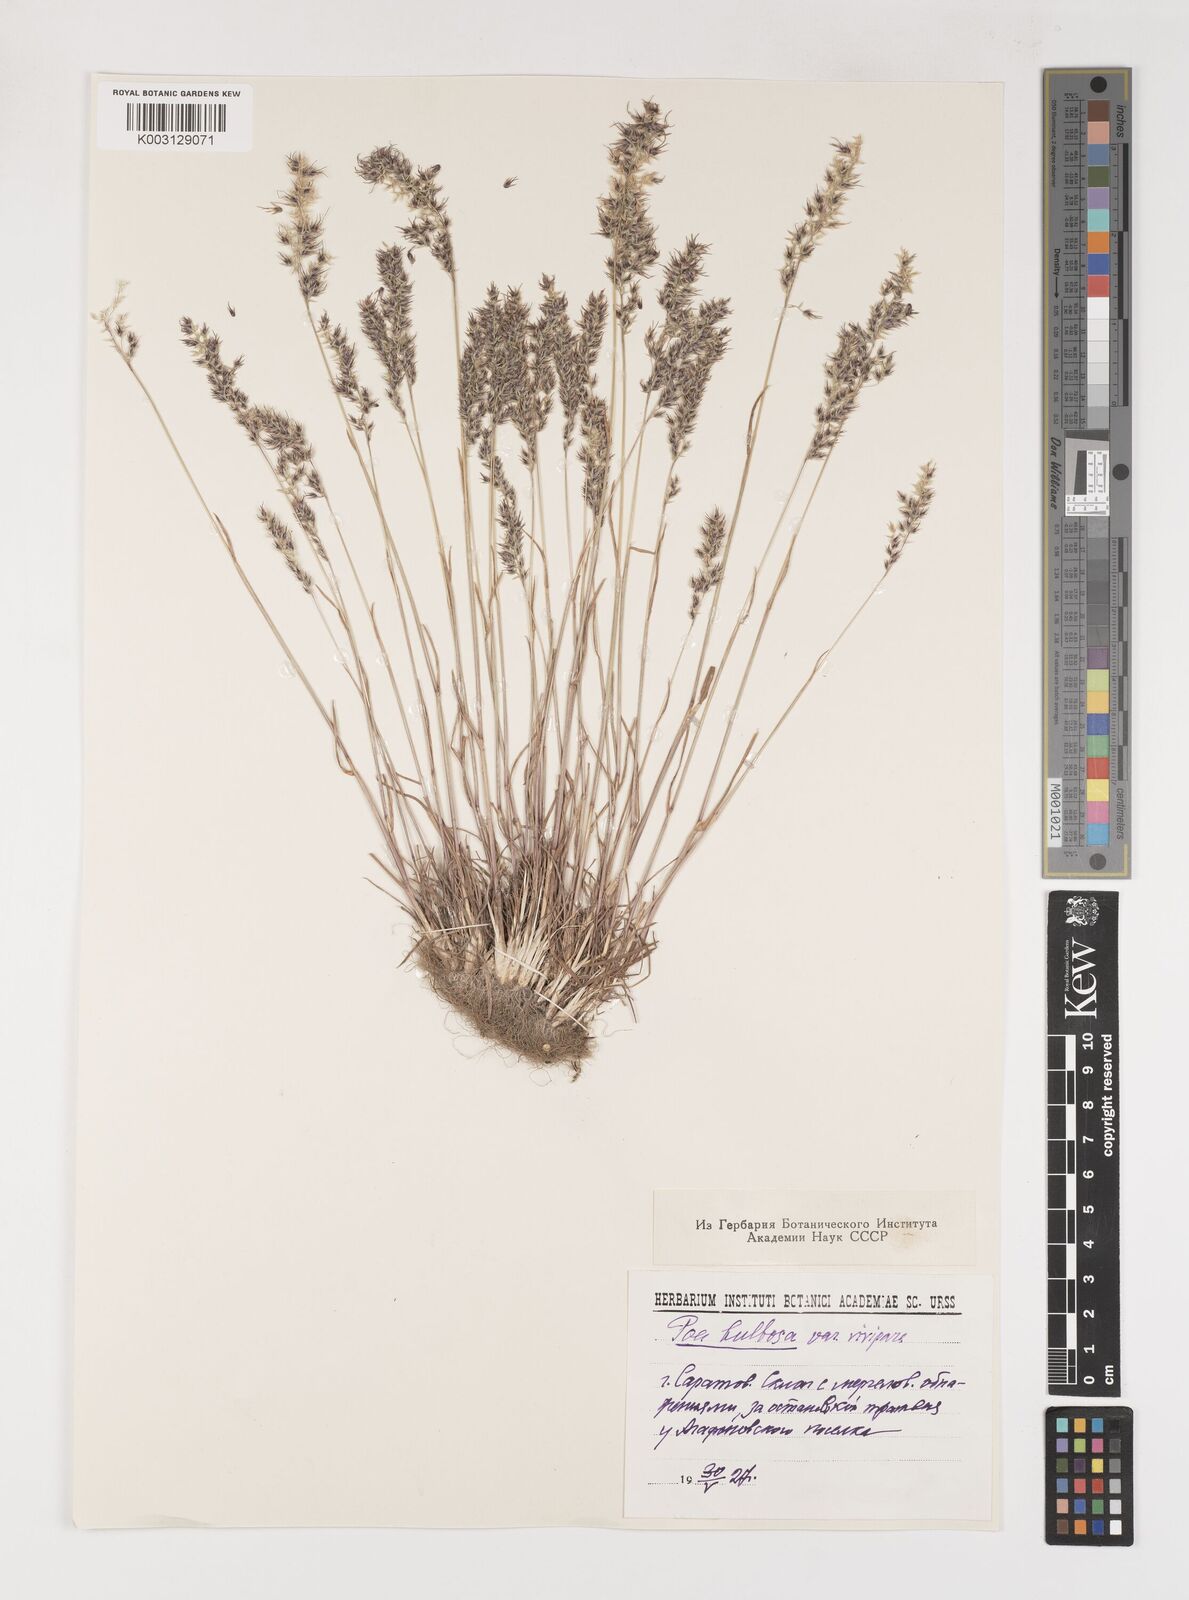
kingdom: Plantae
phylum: Tracheophyta
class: Liliopsida
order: Poales
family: Poaceae
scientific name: Poaceae
